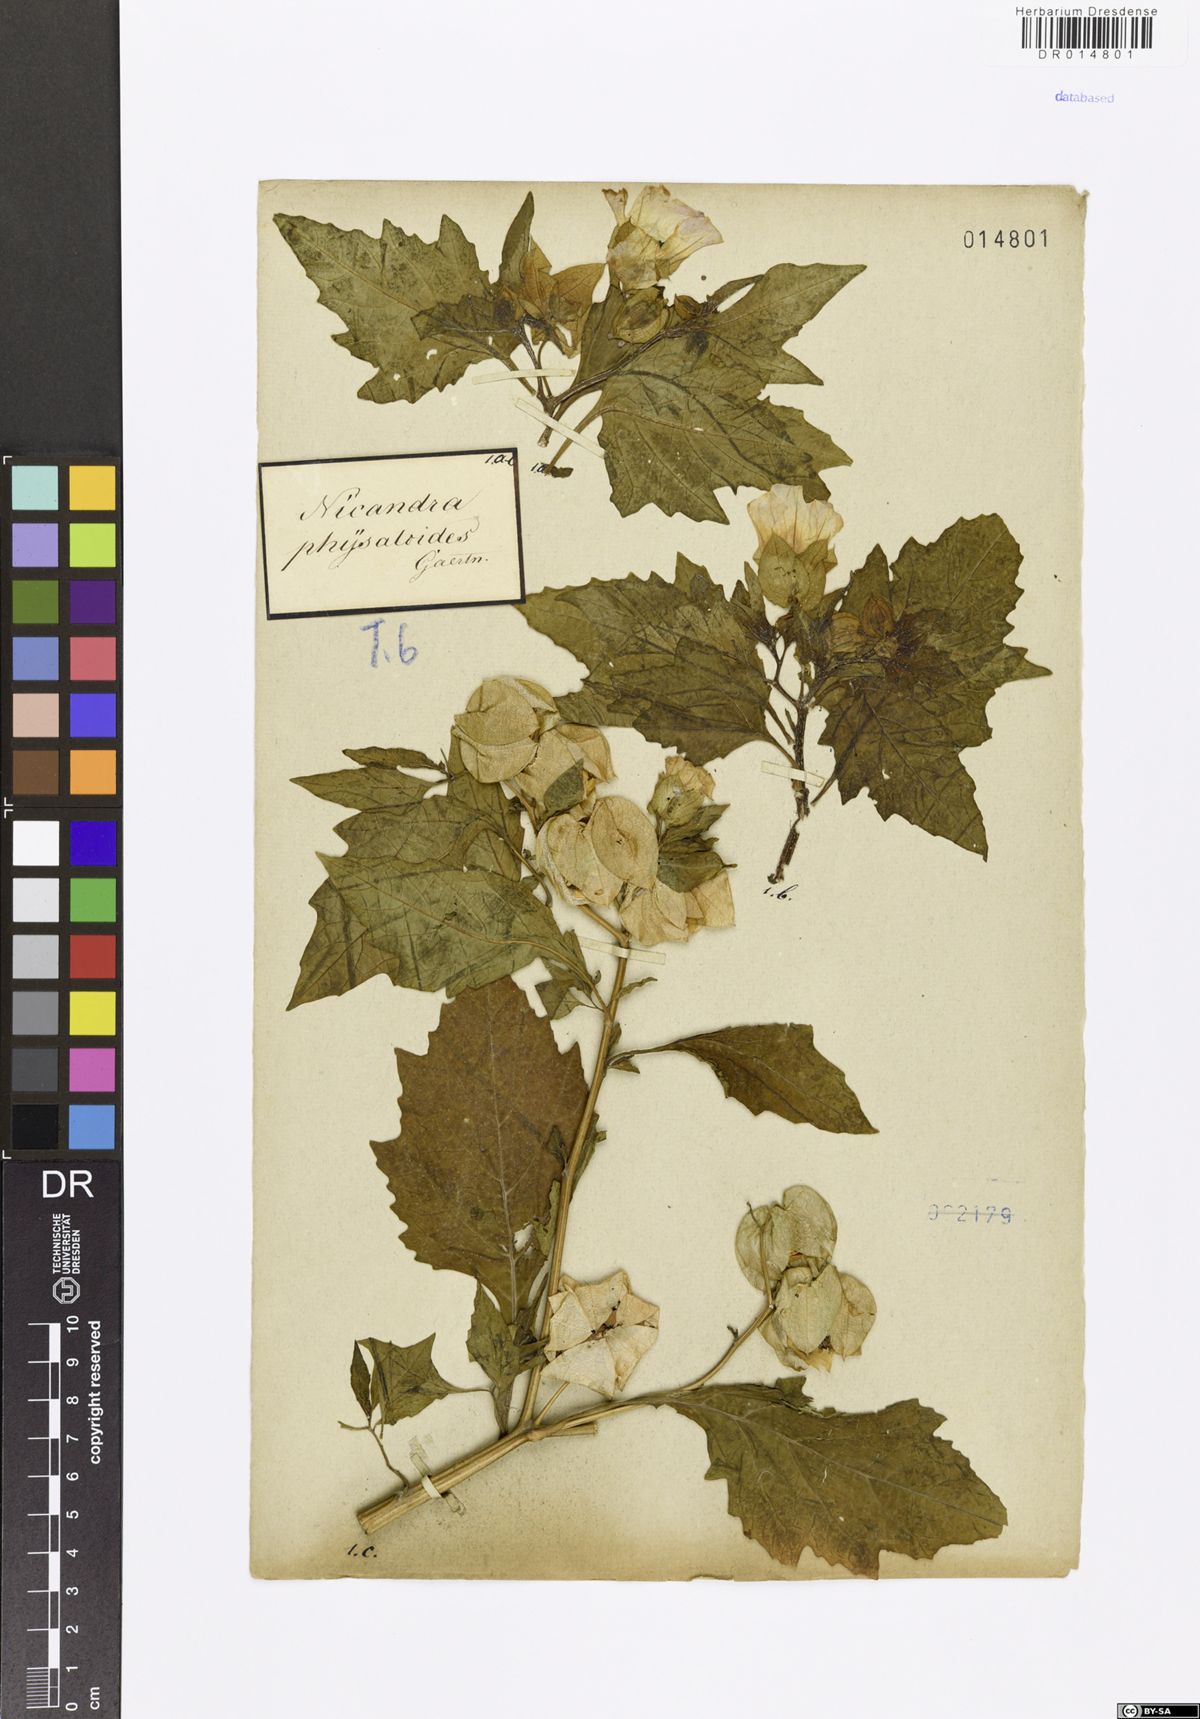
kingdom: Plantae
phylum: Tracheophyta
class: Magnoliopsida
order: Solanales
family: Solanaceae
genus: Nicandra
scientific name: Nicandra physalodes
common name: Apple-of-peru
